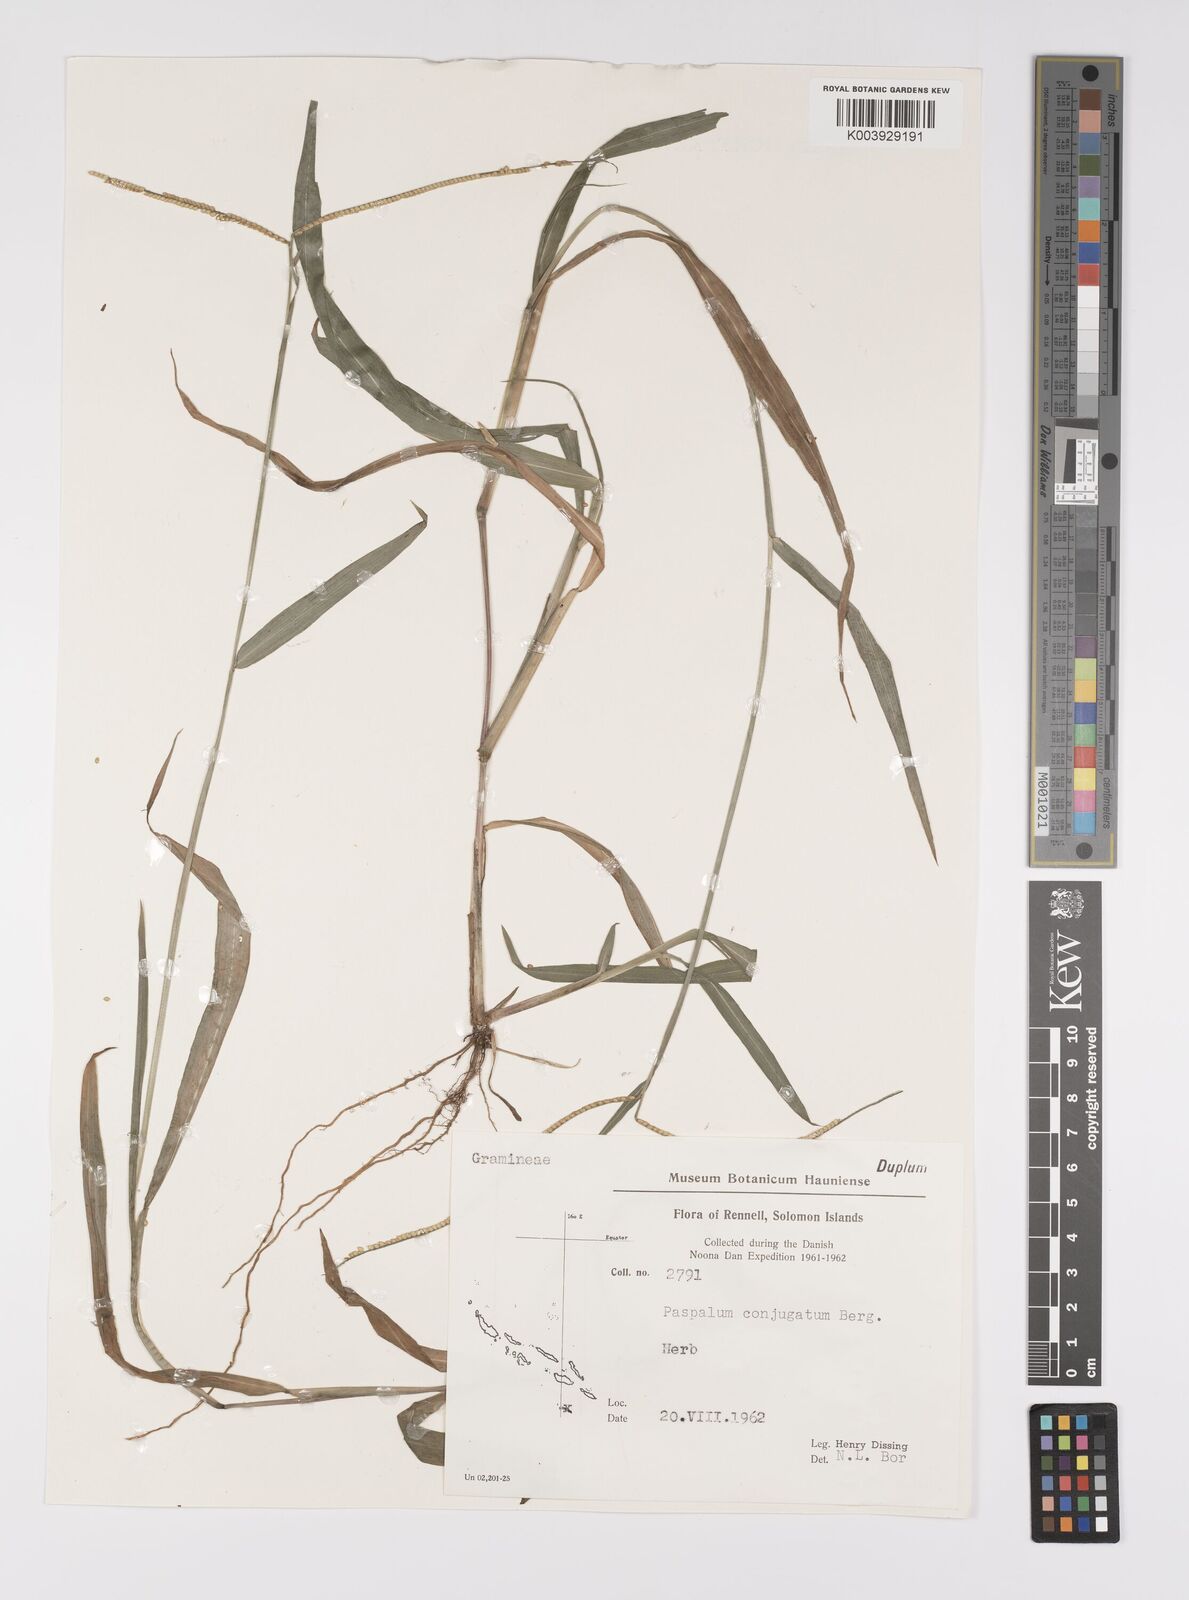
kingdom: Plantae
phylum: Tracheophyta
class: Liliopsida
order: Poales
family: Poaceae
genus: Paspalum
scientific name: Paspalum conjugatum
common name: Hilograss
